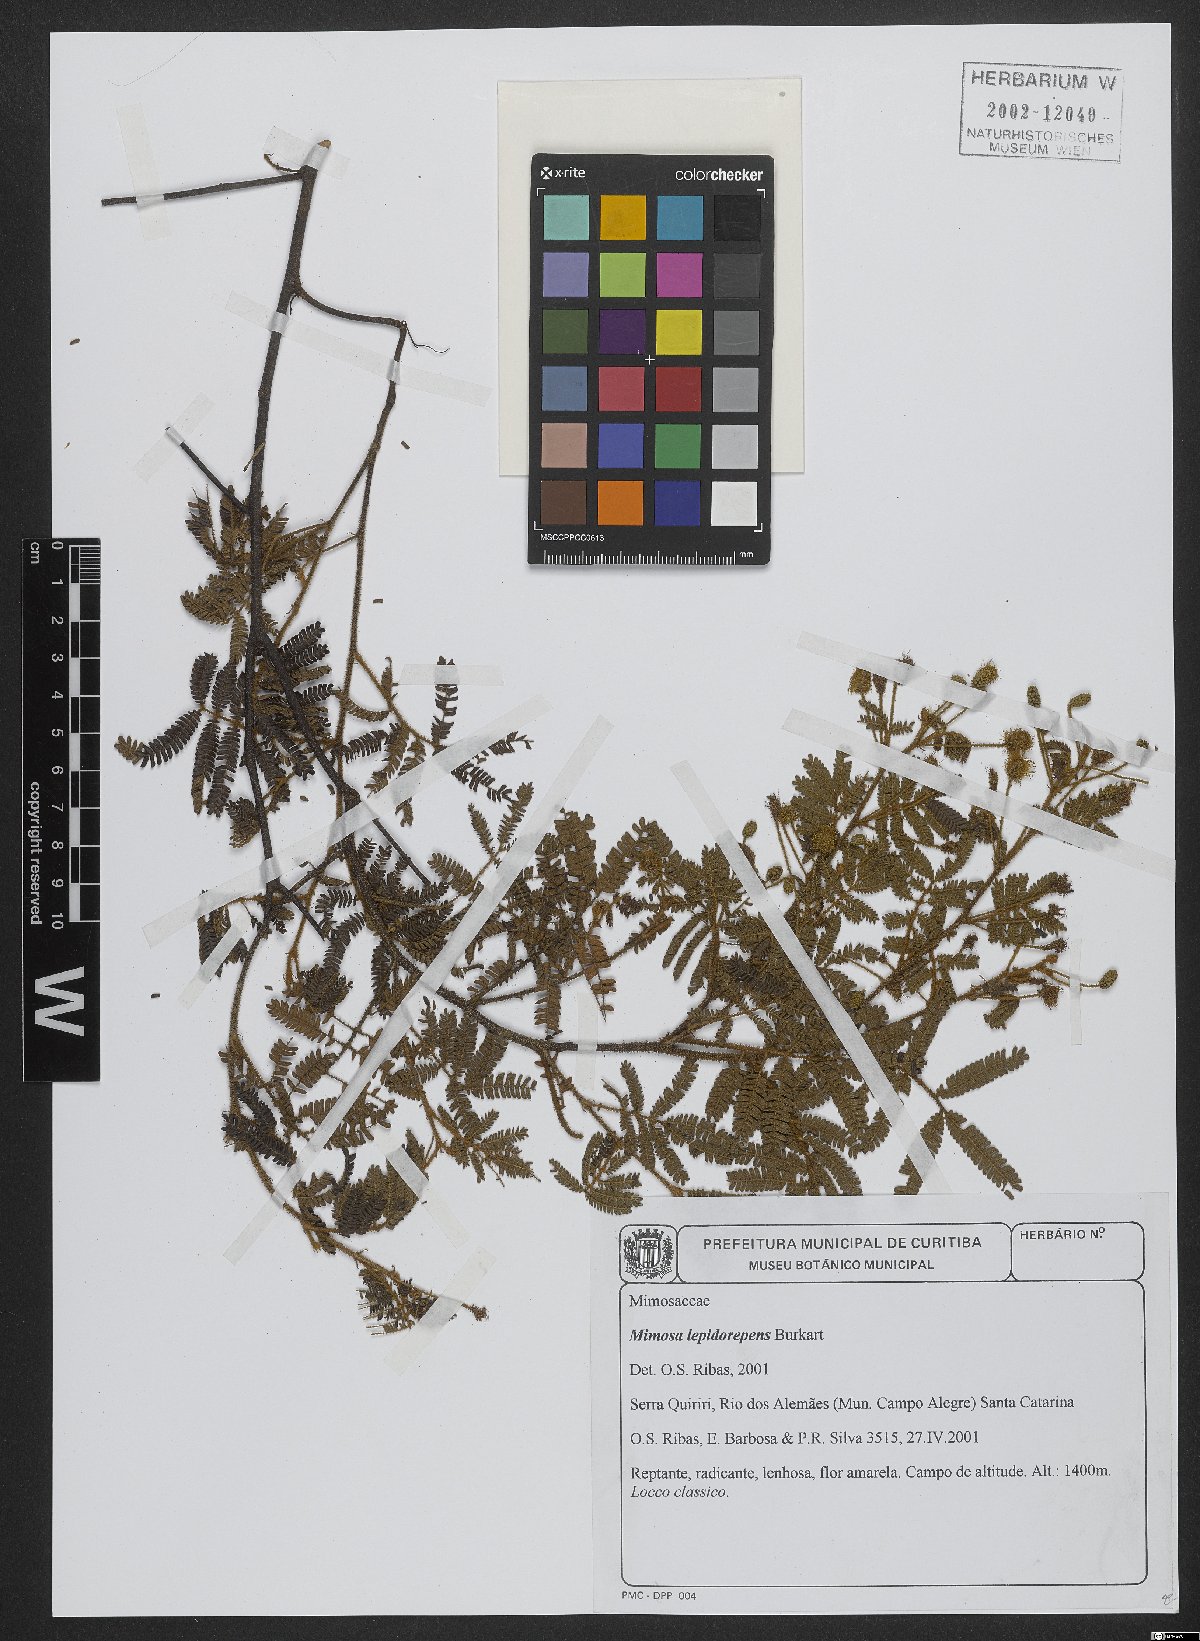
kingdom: Plantae
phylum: Tracheophyta
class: Magnoliopsida
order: Fabales
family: Fabaceae
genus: Mimosa
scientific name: Mimosa lepidorepens
